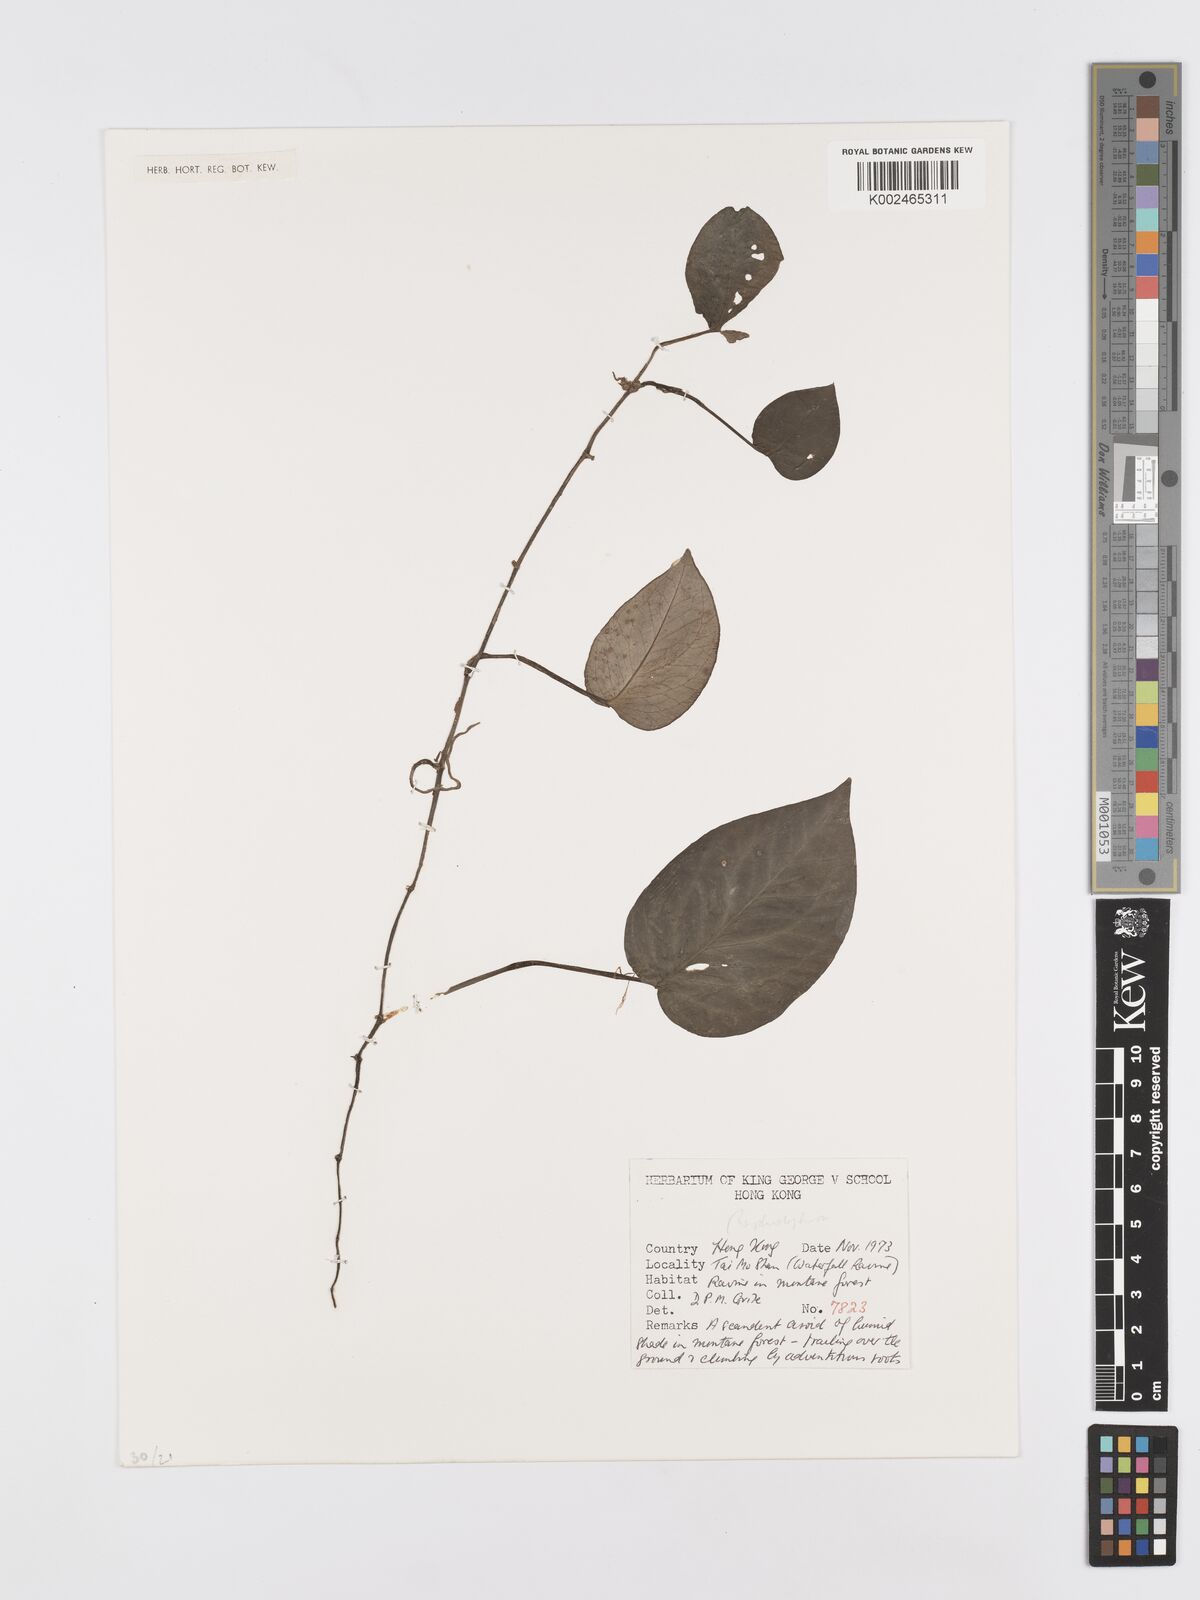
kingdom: Plantae
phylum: Tracheophyta
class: Liliopsida
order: Alismatales
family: Araceae
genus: Rhaphidophora
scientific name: Rhaphidophora
